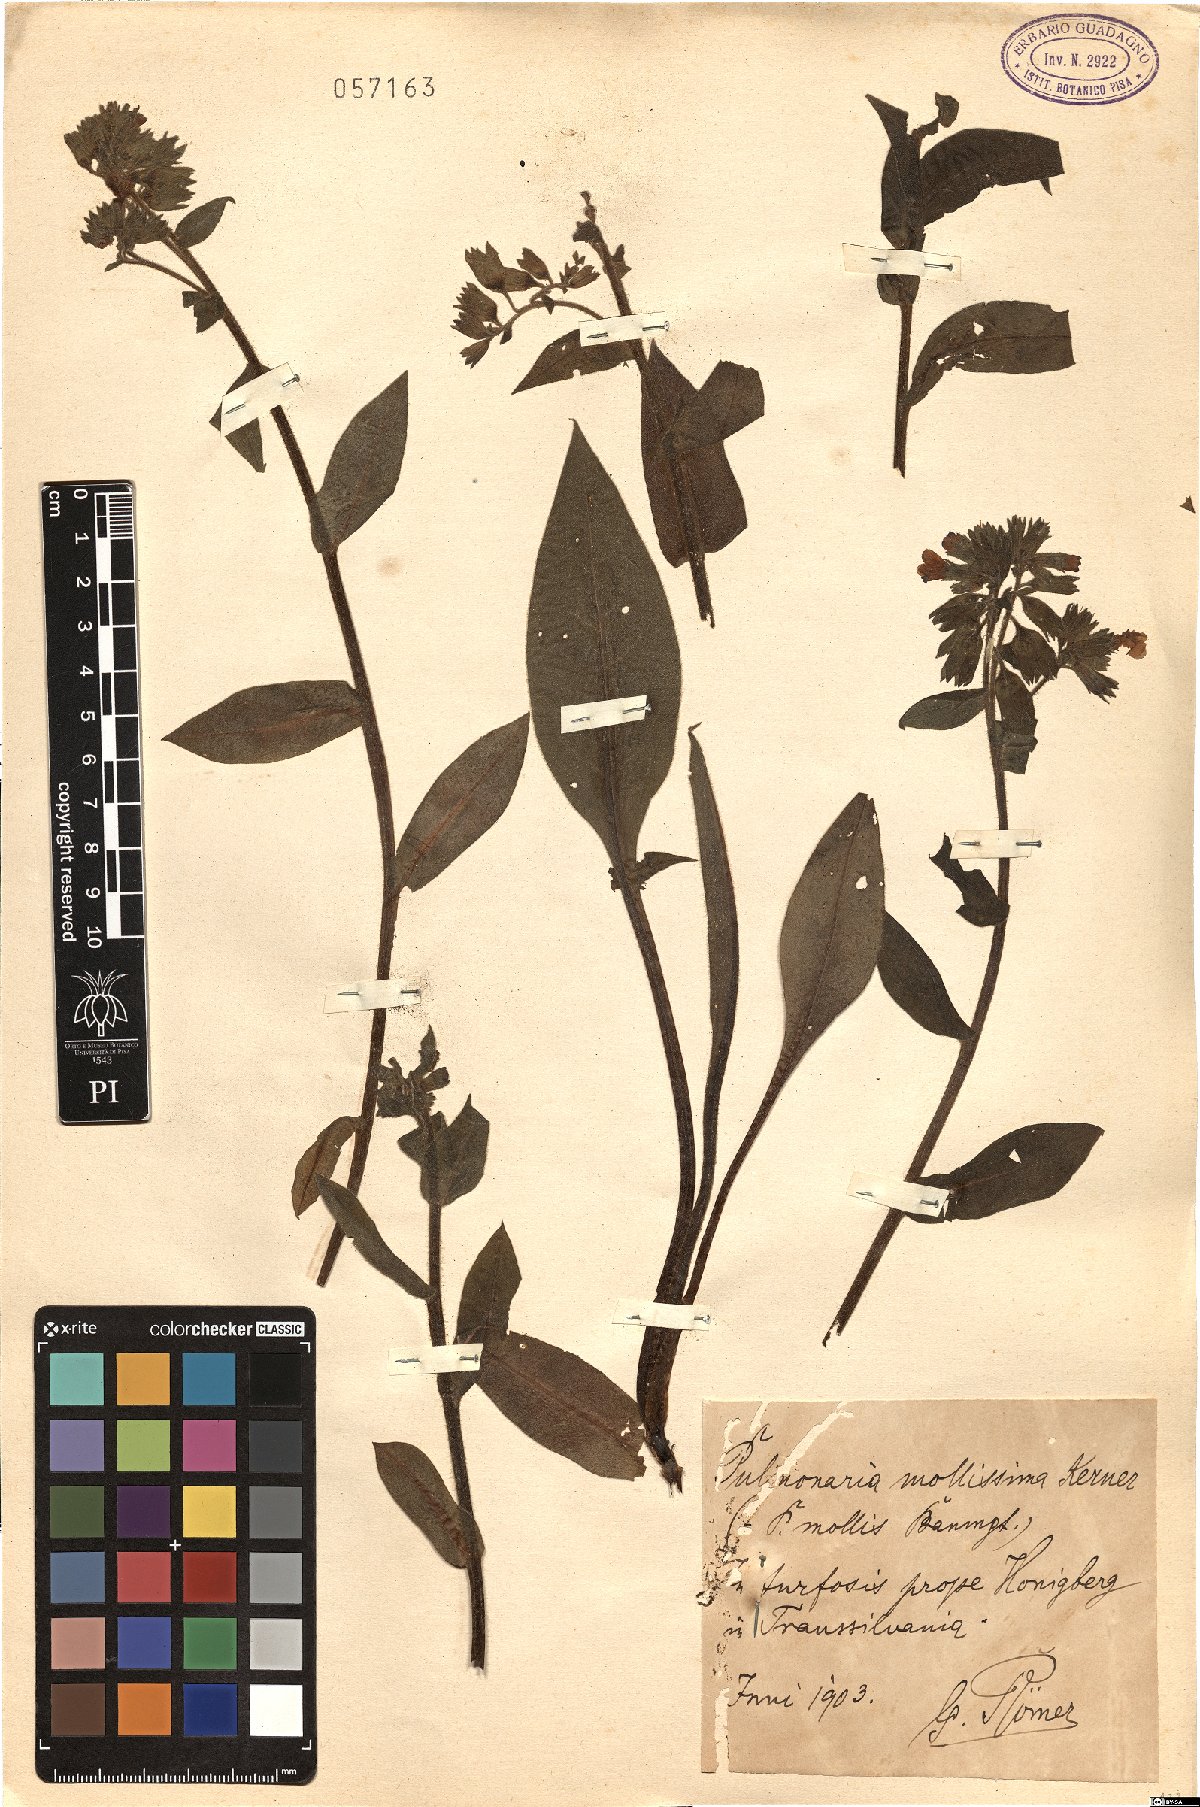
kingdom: Plantae
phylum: Tracheophyta
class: Magnoliopsida
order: Boraginales
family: Boraginaceae
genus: Pulmonaria
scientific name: Pulmonaria mollis
